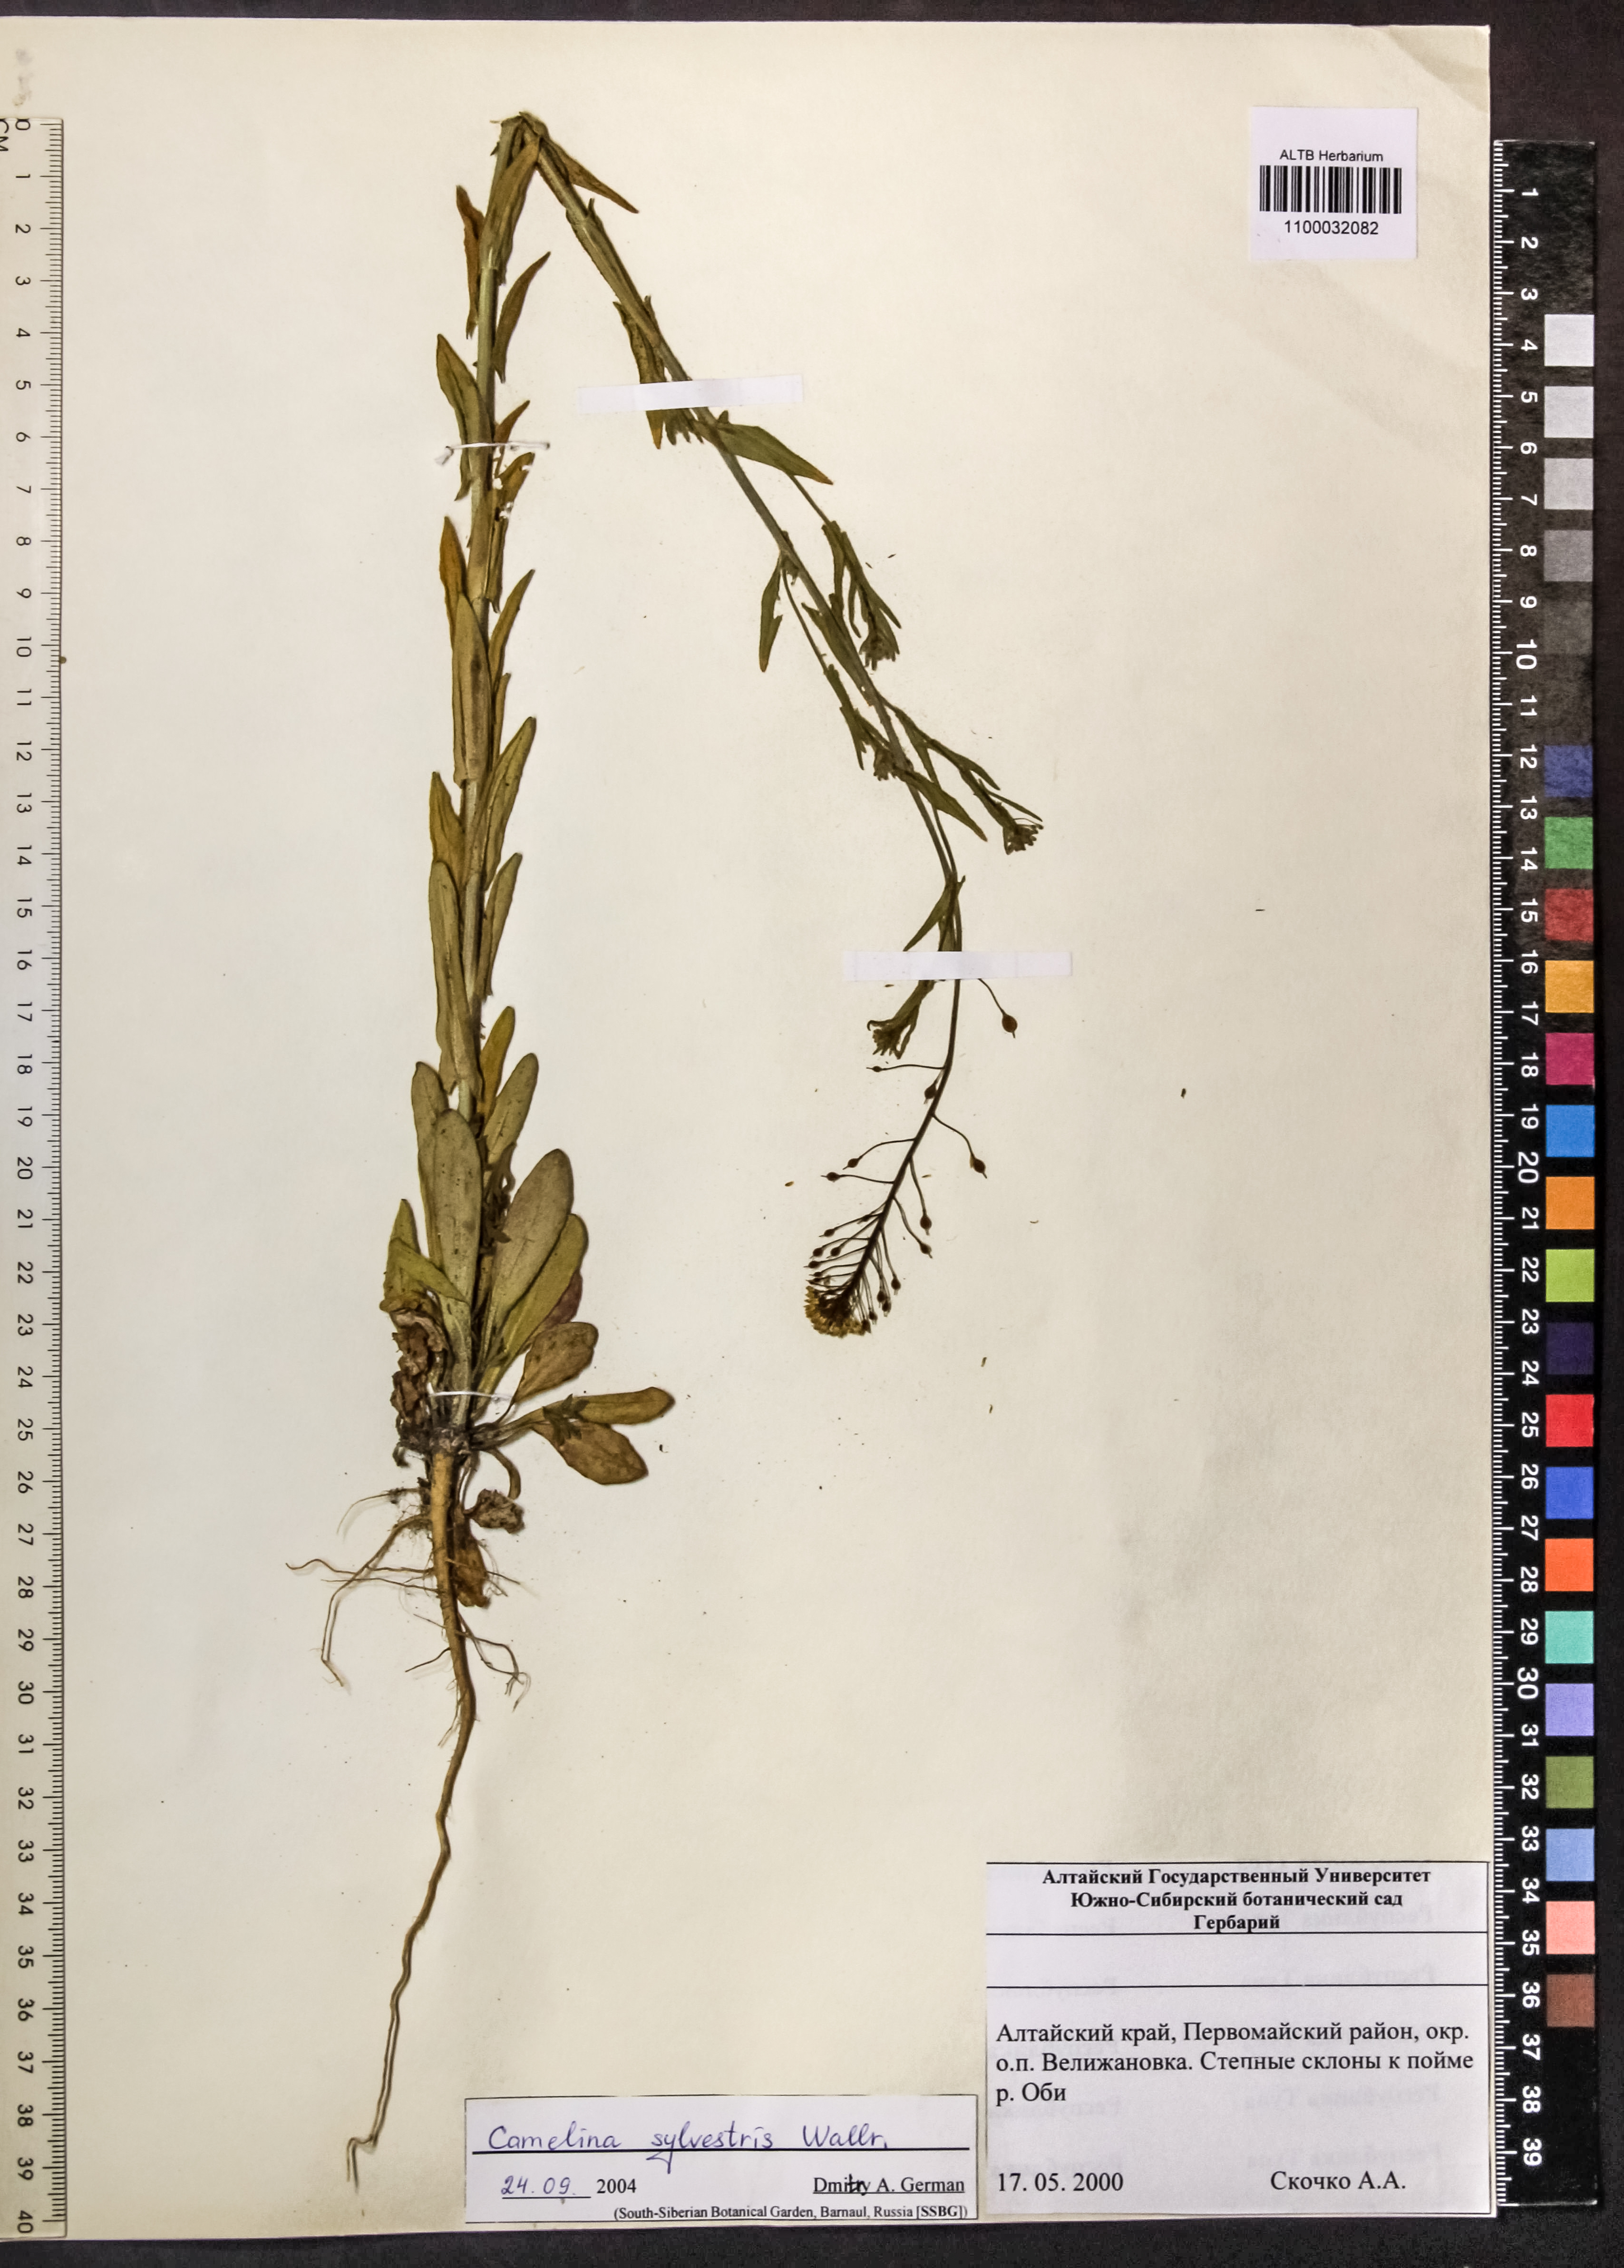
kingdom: Plantae
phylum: Tracheophyta
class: Magnoliopsida
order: Brassicales
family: Brassicaceae
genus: Camelina
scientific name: Camelina microcarpa
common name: Lesser gold-of-pleasure
